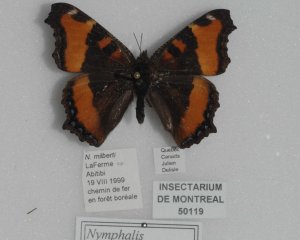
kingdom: Animalia
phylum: Arthropoda
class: Insecta
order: Lepidoptera
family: Nymphalidae
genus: Aglais
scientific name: Aglais milberti
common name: Milbert's Tortoiseshell
